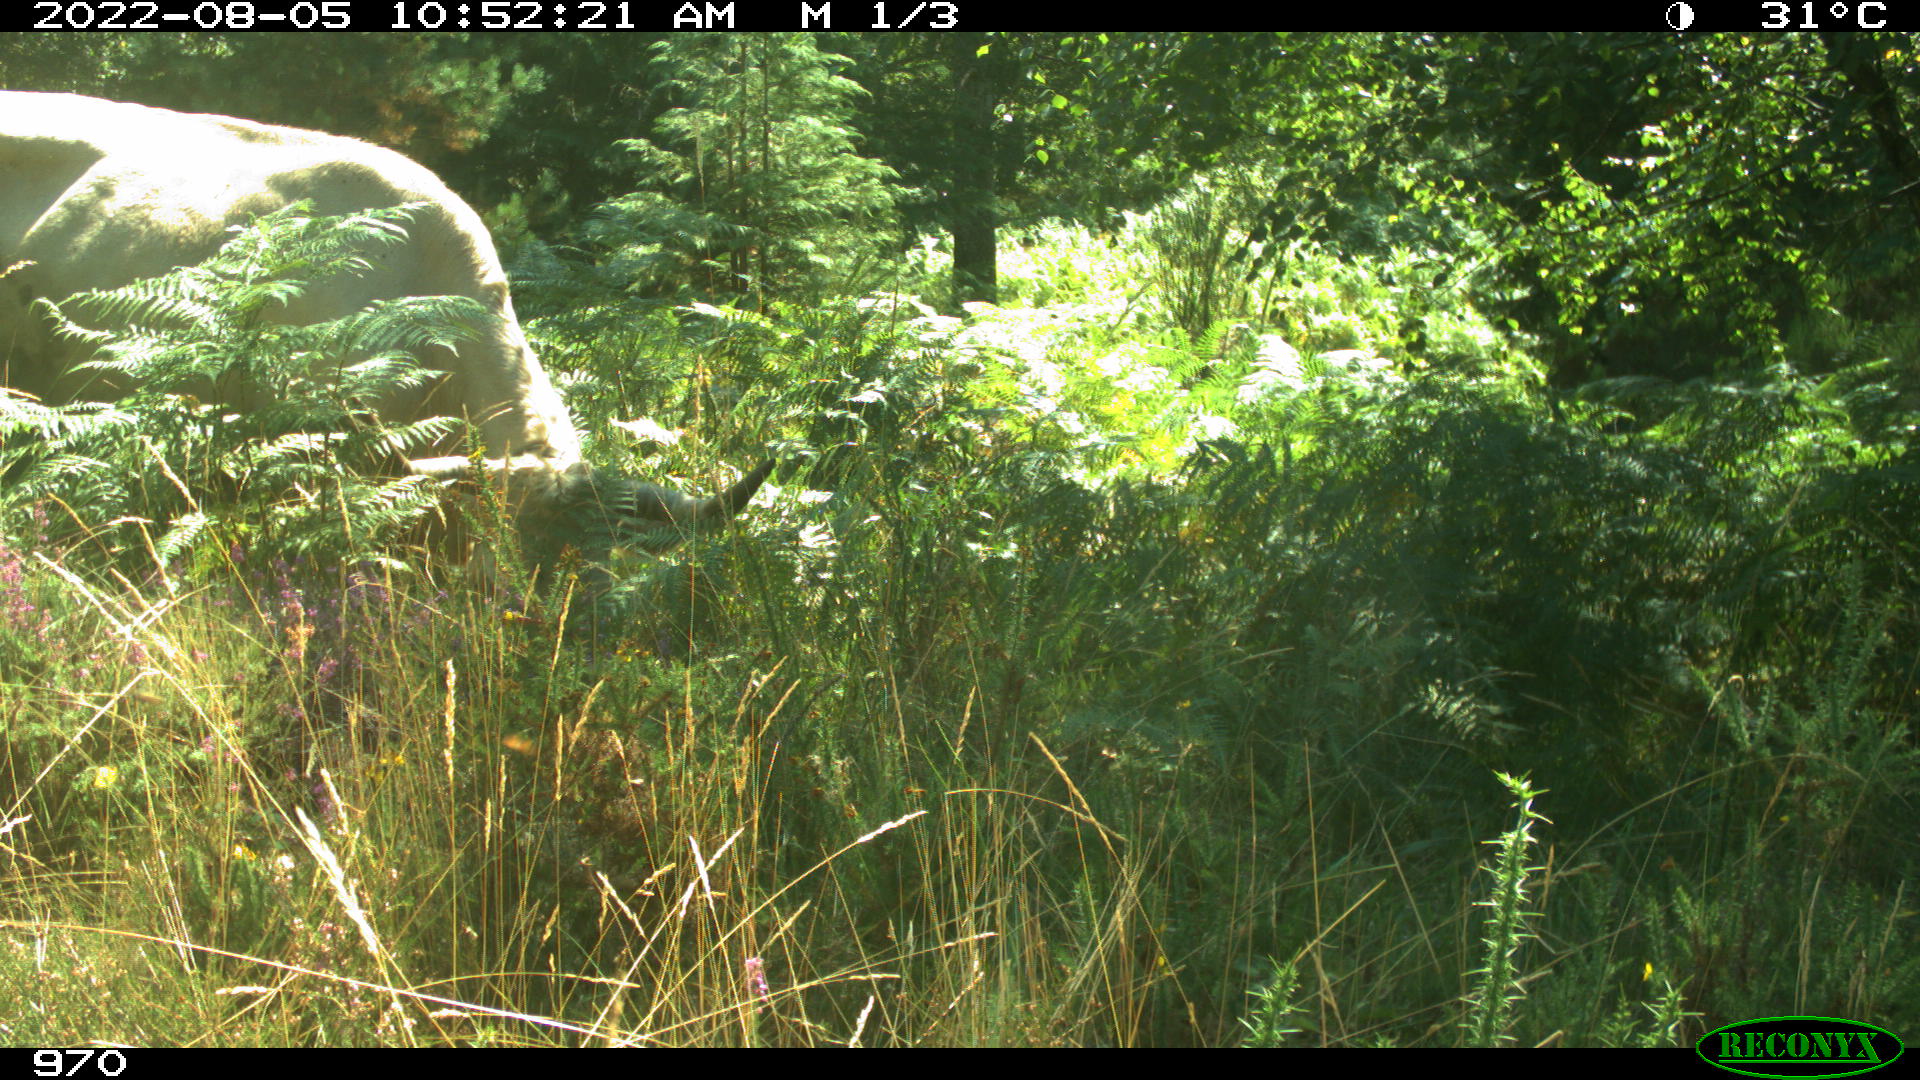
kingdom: Animalia
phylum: Chordata
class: Mammalia
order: Artiodactyla
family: Bovidae
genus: Bos
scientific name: Bos taurus
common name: Domesticated cattle
